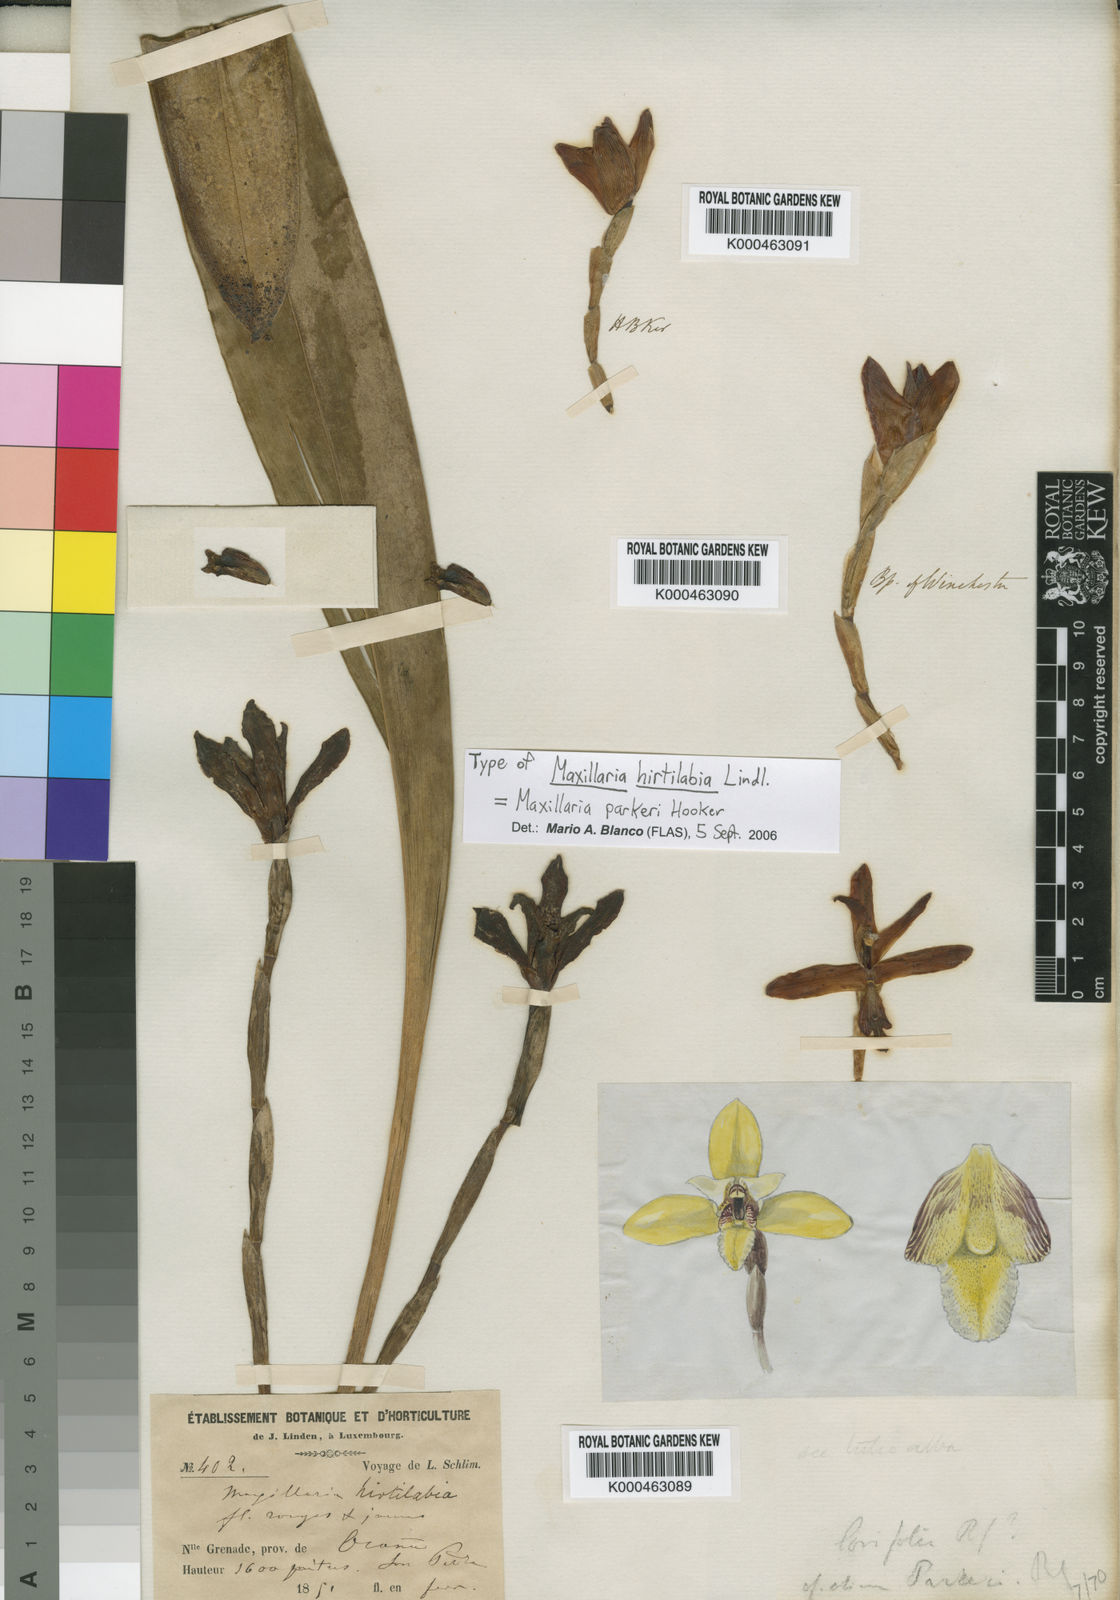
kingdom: Plantae
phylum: Tracheophyta
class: Liliopsida
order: Asparagales
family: Orchidaceae
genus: Maxillaria
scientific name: Maxillaria parkeri
